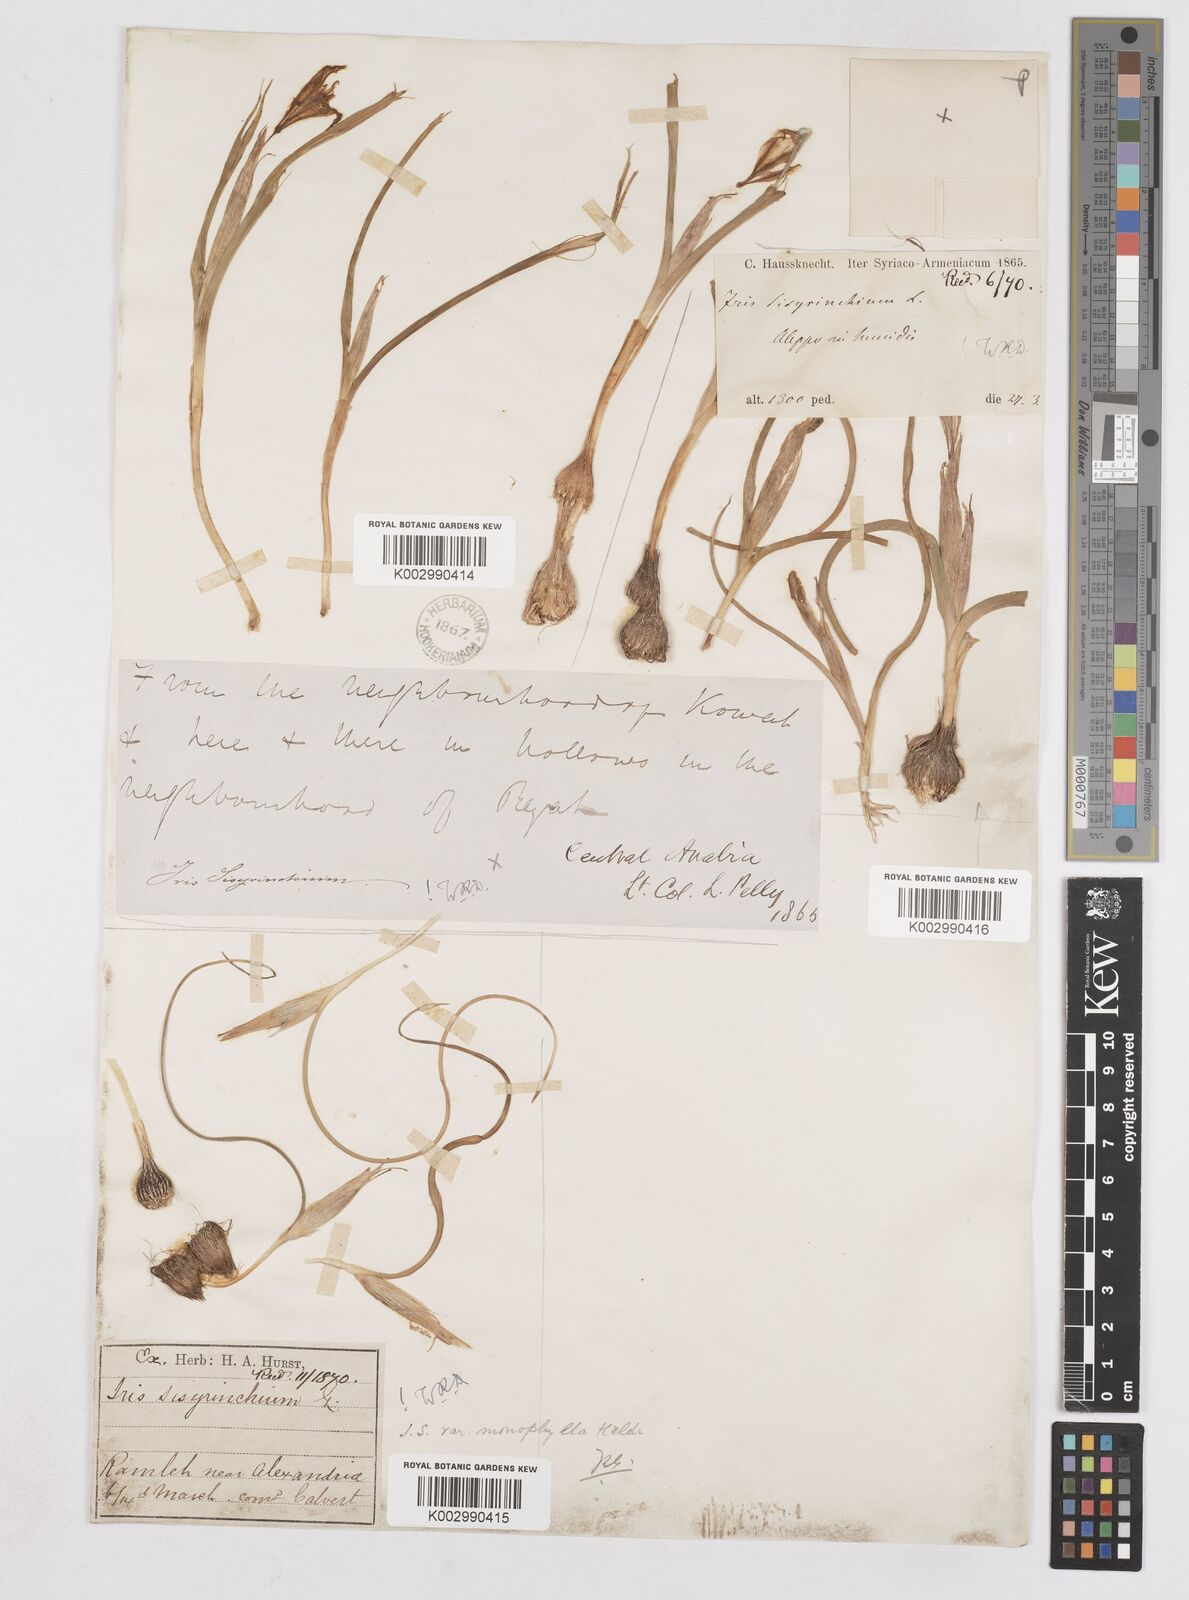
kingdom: Plantae
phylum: Tracheophyta
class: Liliopsida
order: Asparagales
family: Iridaceae
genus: Moraea
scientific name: Moraea
